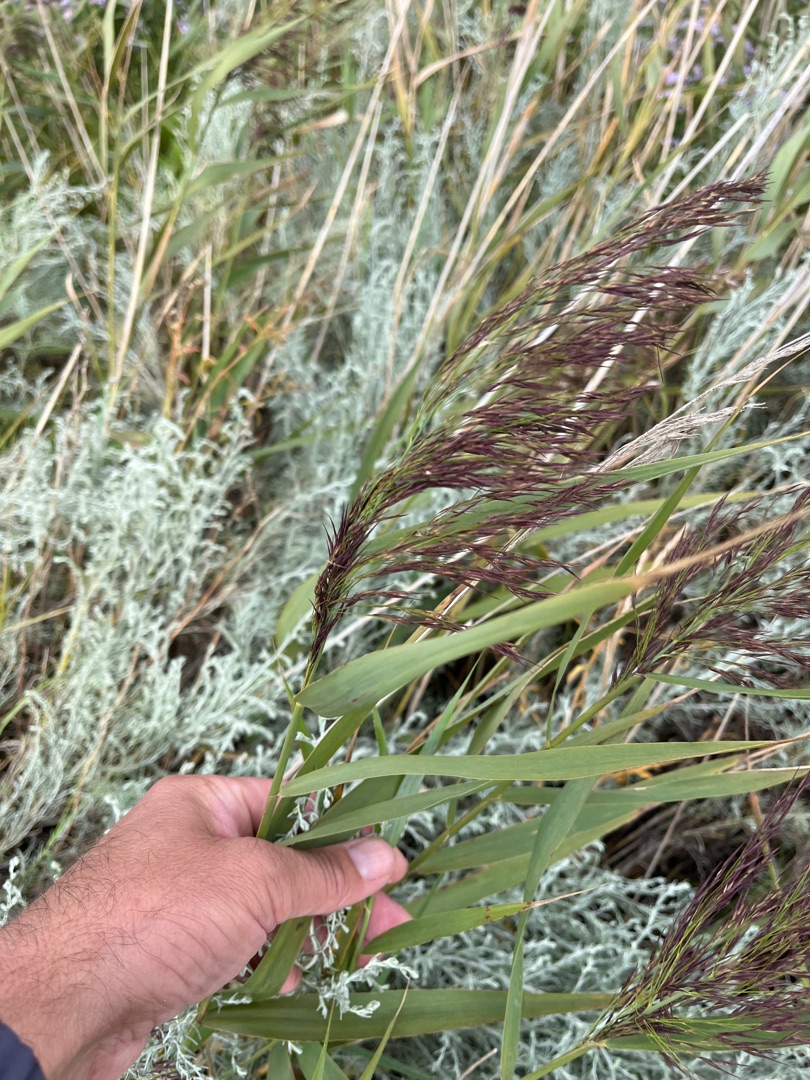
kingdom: Plantae
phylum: Tracheophyta
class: Liliopsida
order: Poales
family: Poaceae
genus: Phragmites
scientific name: Phragmites australis
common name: Tagrør
